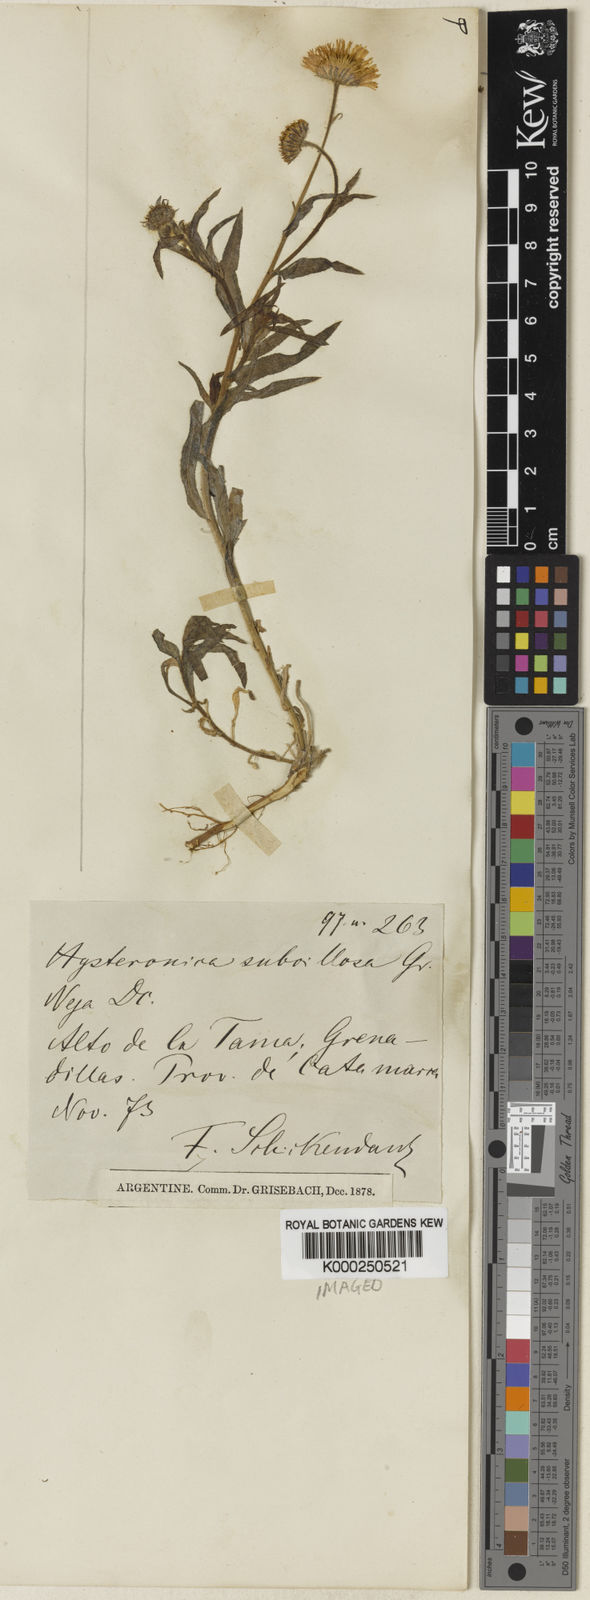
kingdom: Plantae
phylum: Tracheophyta
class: Magnoliopsida
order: Asterales
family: Asteraceae
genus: Hysterionica
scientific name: Hysterionica subvillosa
